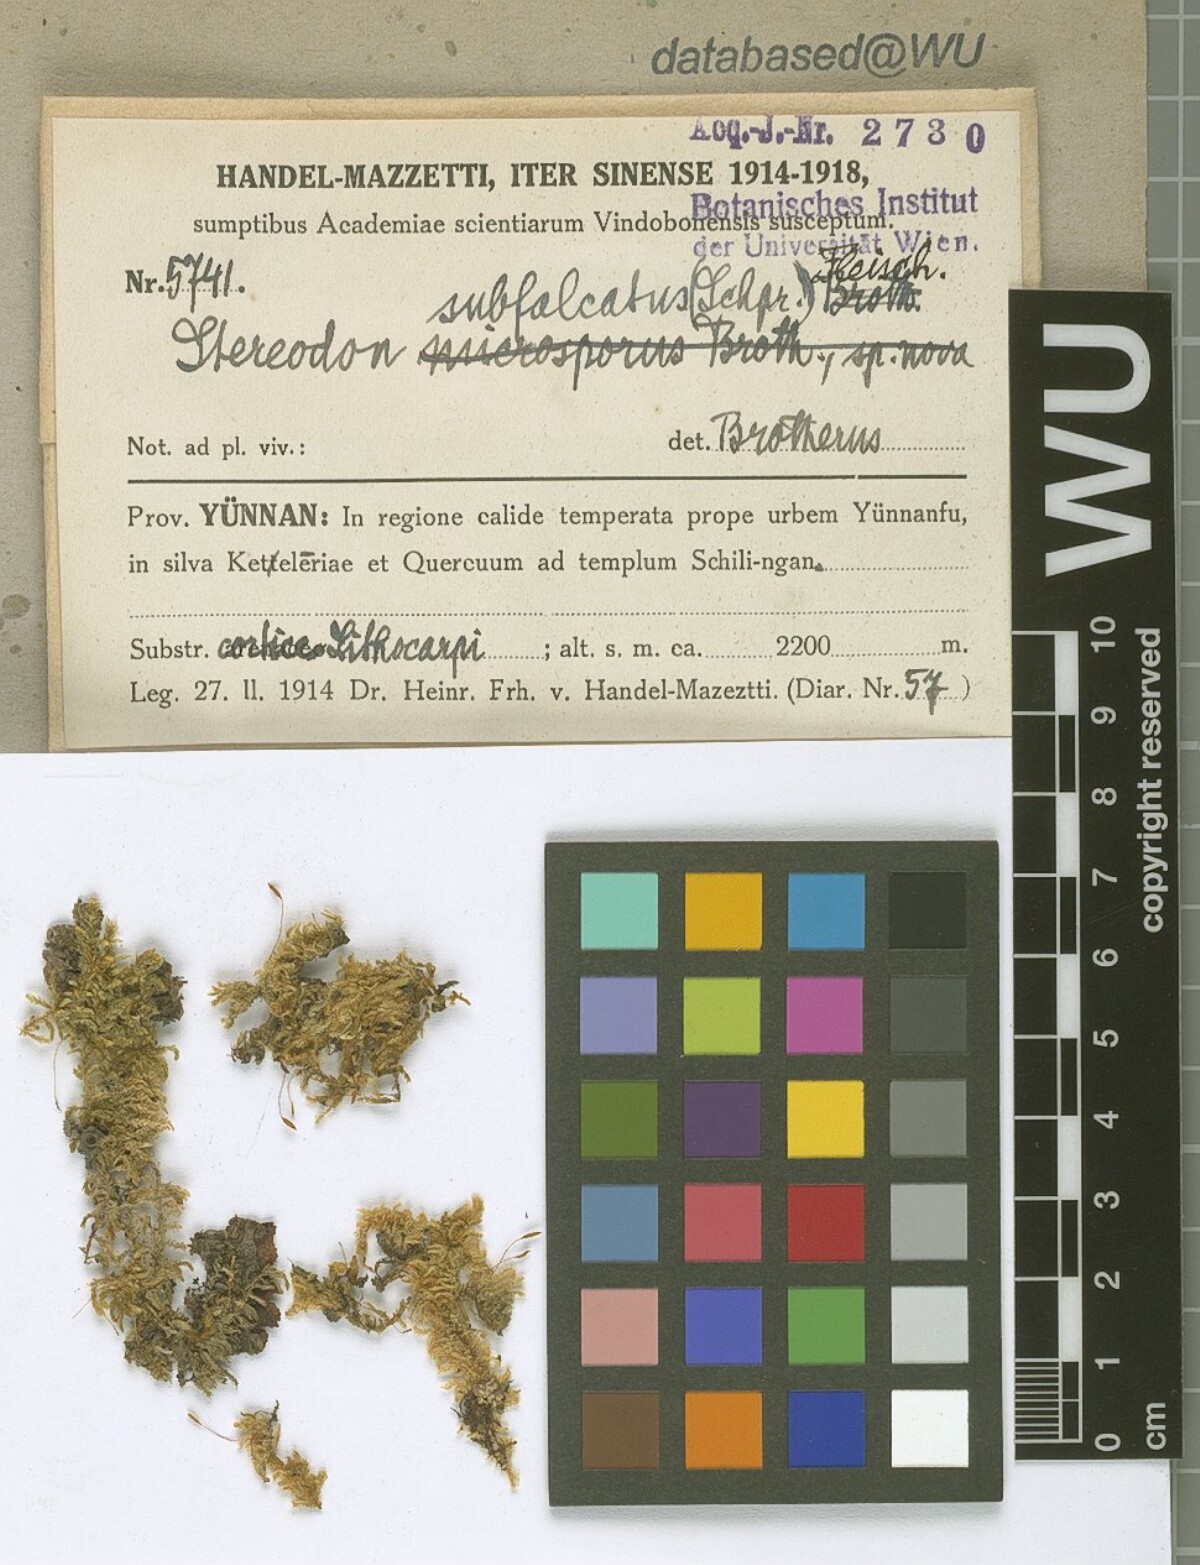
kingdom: Plantae
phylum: Bryophyta
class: Bryopsida
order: Hypnales
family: Pylaisiaceae
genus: Pylaisia
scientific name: Pylaisia falcata
